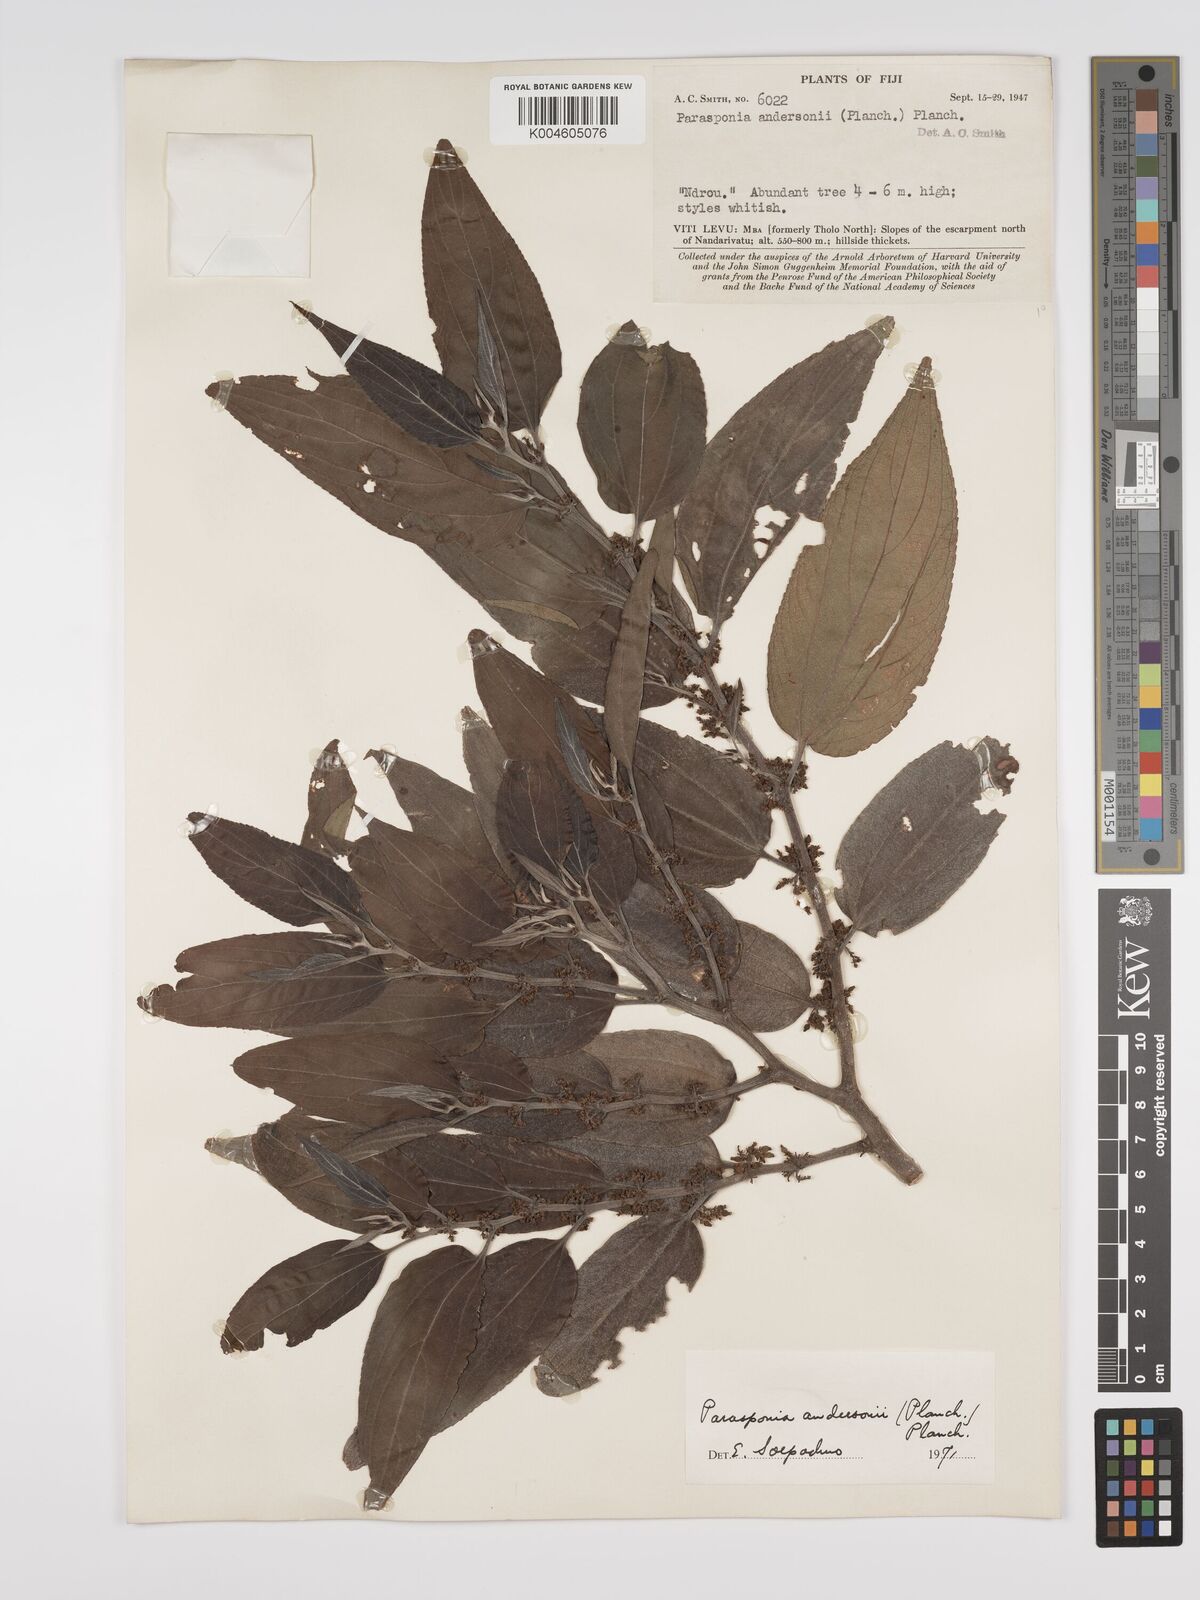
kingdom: Plantae
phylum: Tracheophyta
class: Magnoliopsida
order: Rosales
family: Cannabaceae
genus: Trema
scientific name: Trema andersonii
